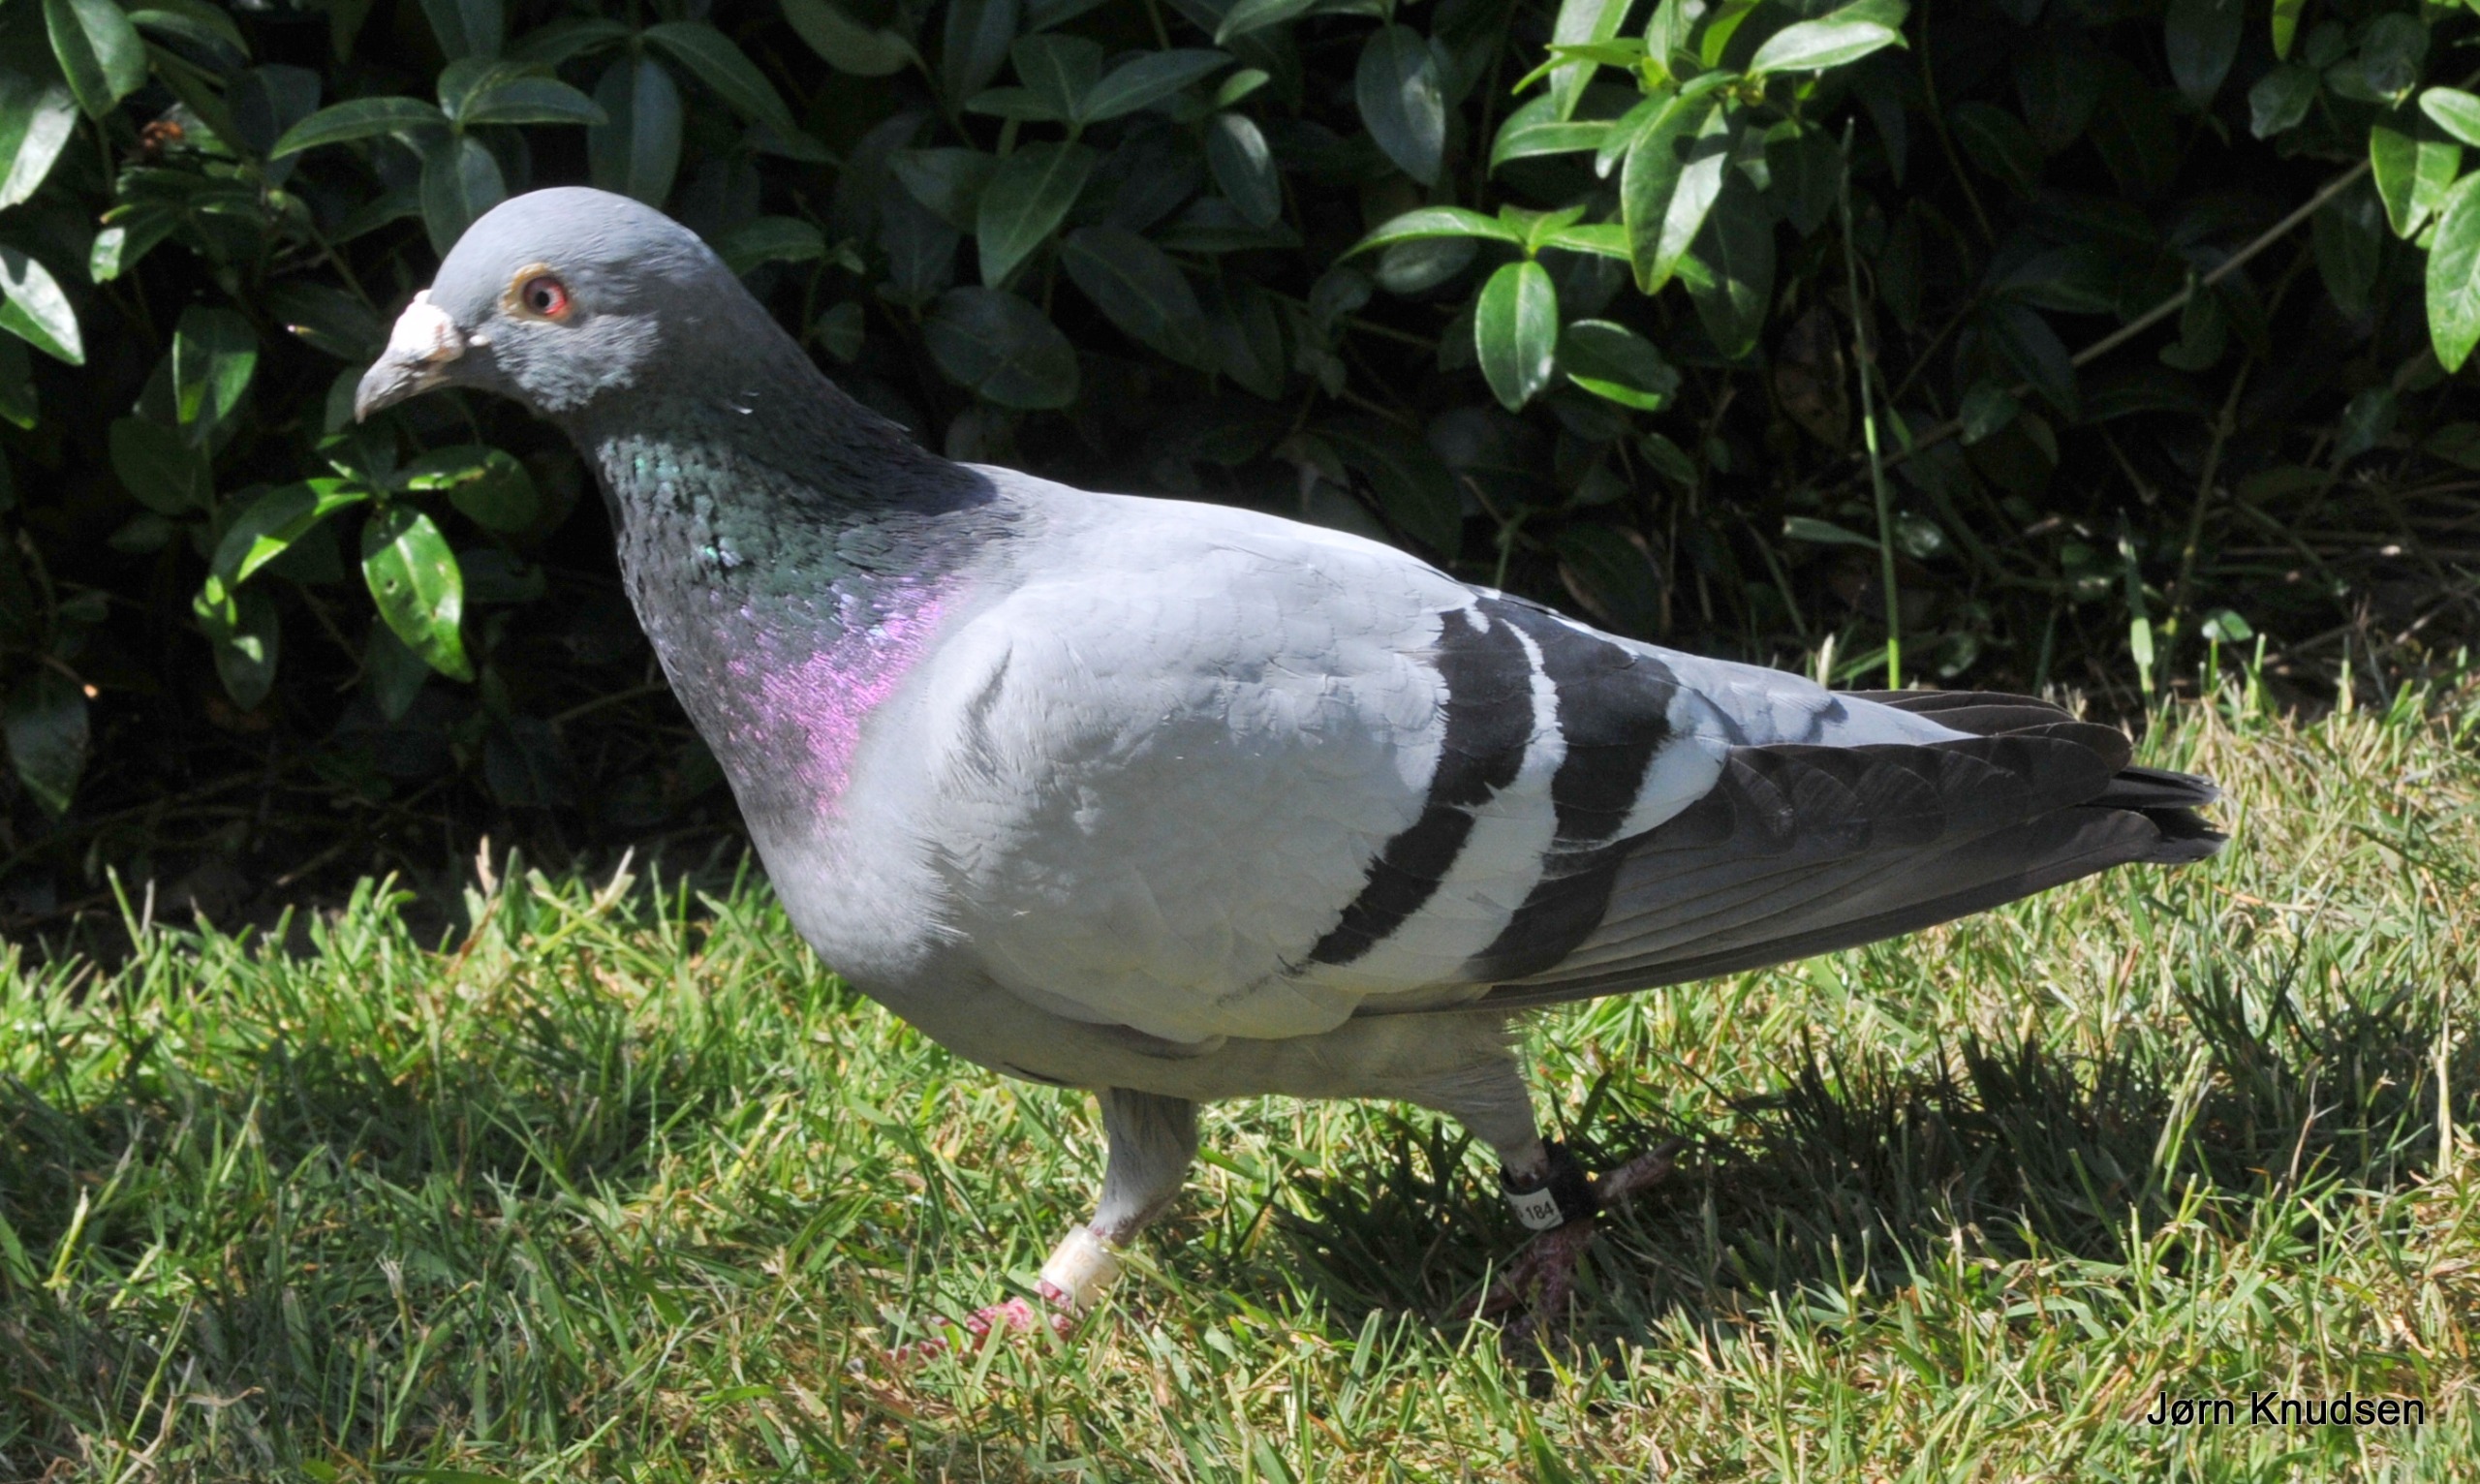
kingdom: Animalia
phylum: Chordata
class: Aves
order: Columbiformes
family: Columbidae
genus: Columba
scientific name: Columba livia
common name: Tamdue
